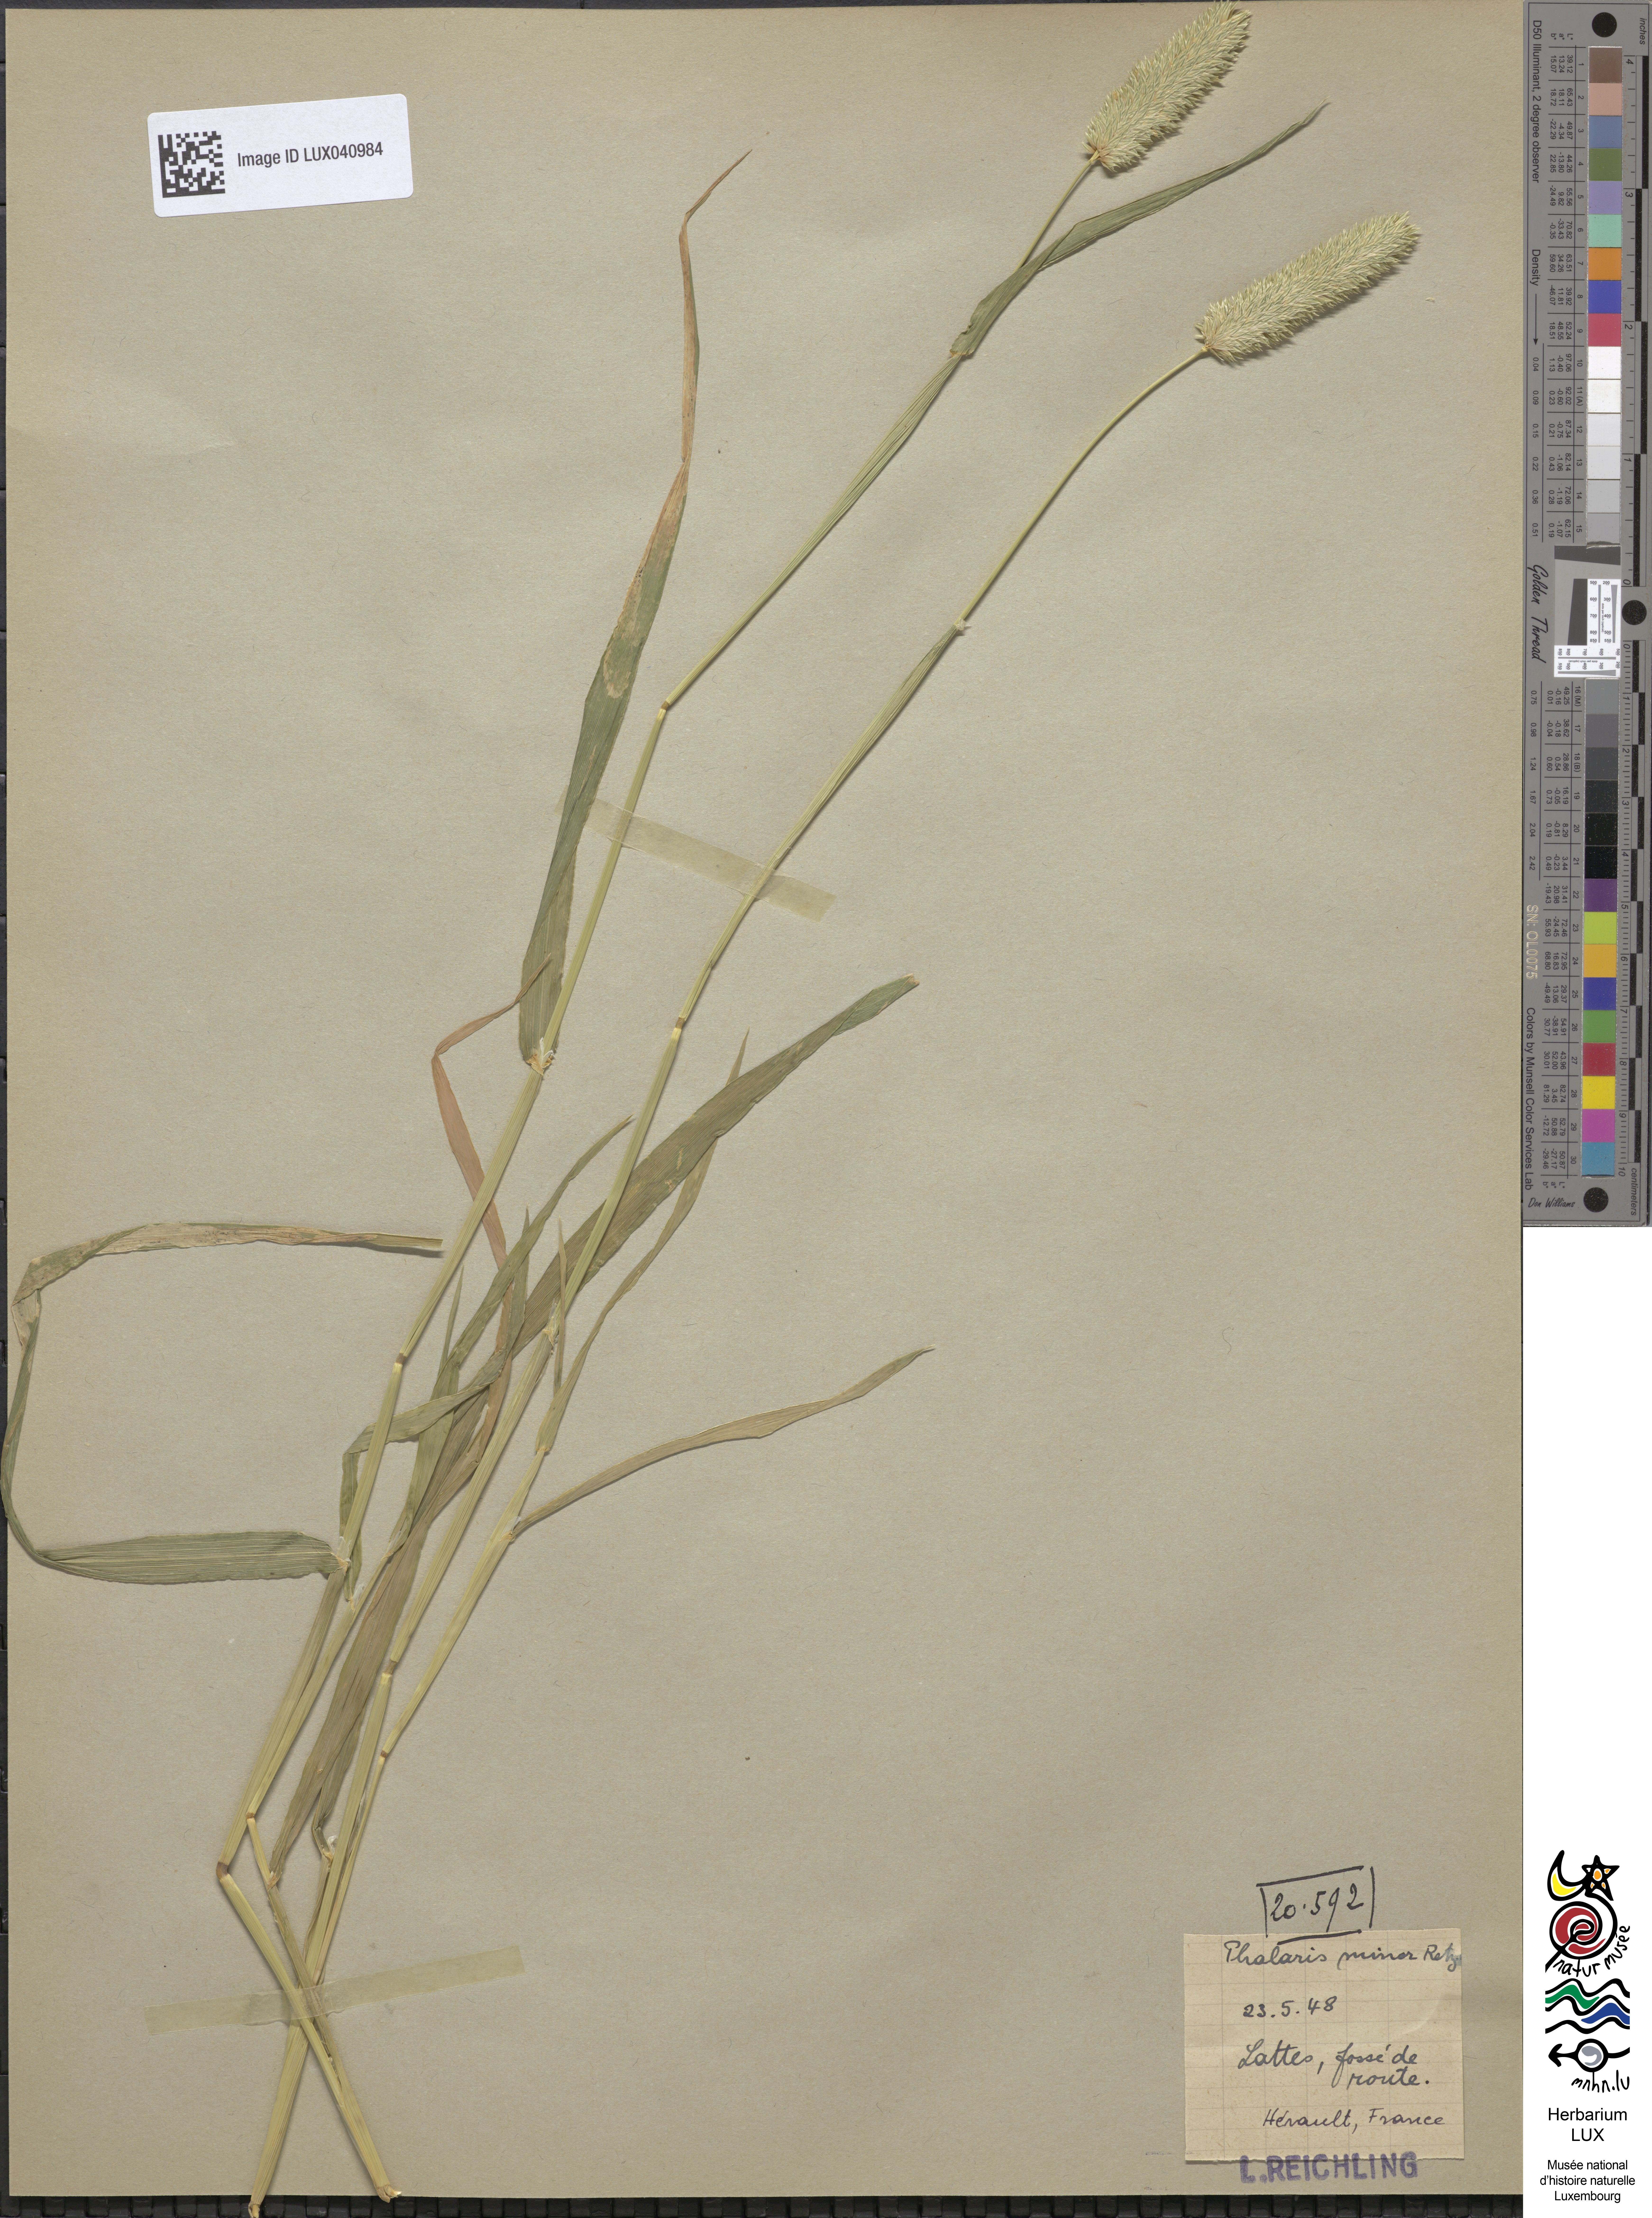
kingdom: Plantae
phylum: Tracheophyta
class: Liliopsida
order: Poales
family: Poaceae
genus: Phalaris
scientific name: Phalaris minor
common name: Littleseed canarygrass
